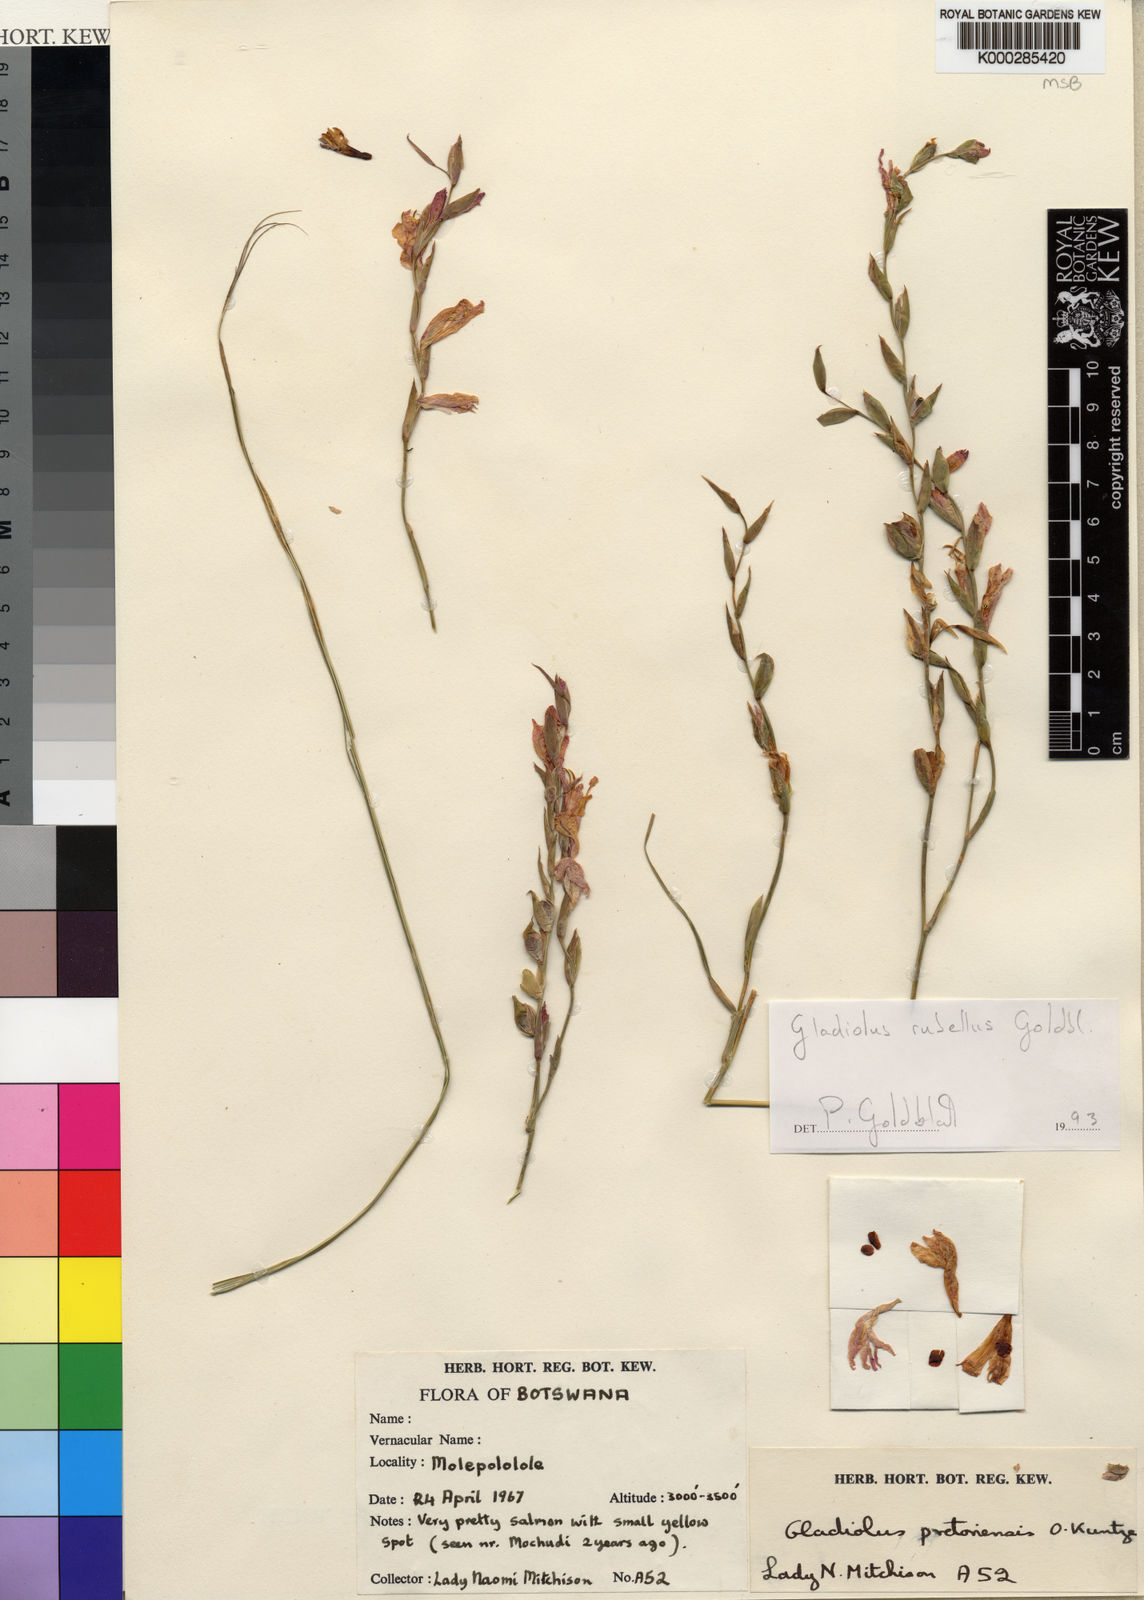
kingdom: Plantae
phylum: Tracheophyta
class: Liliopsida
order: Asparagales
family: Iridaceae
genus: Gladiolus
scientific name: Gladiolus rubellus
